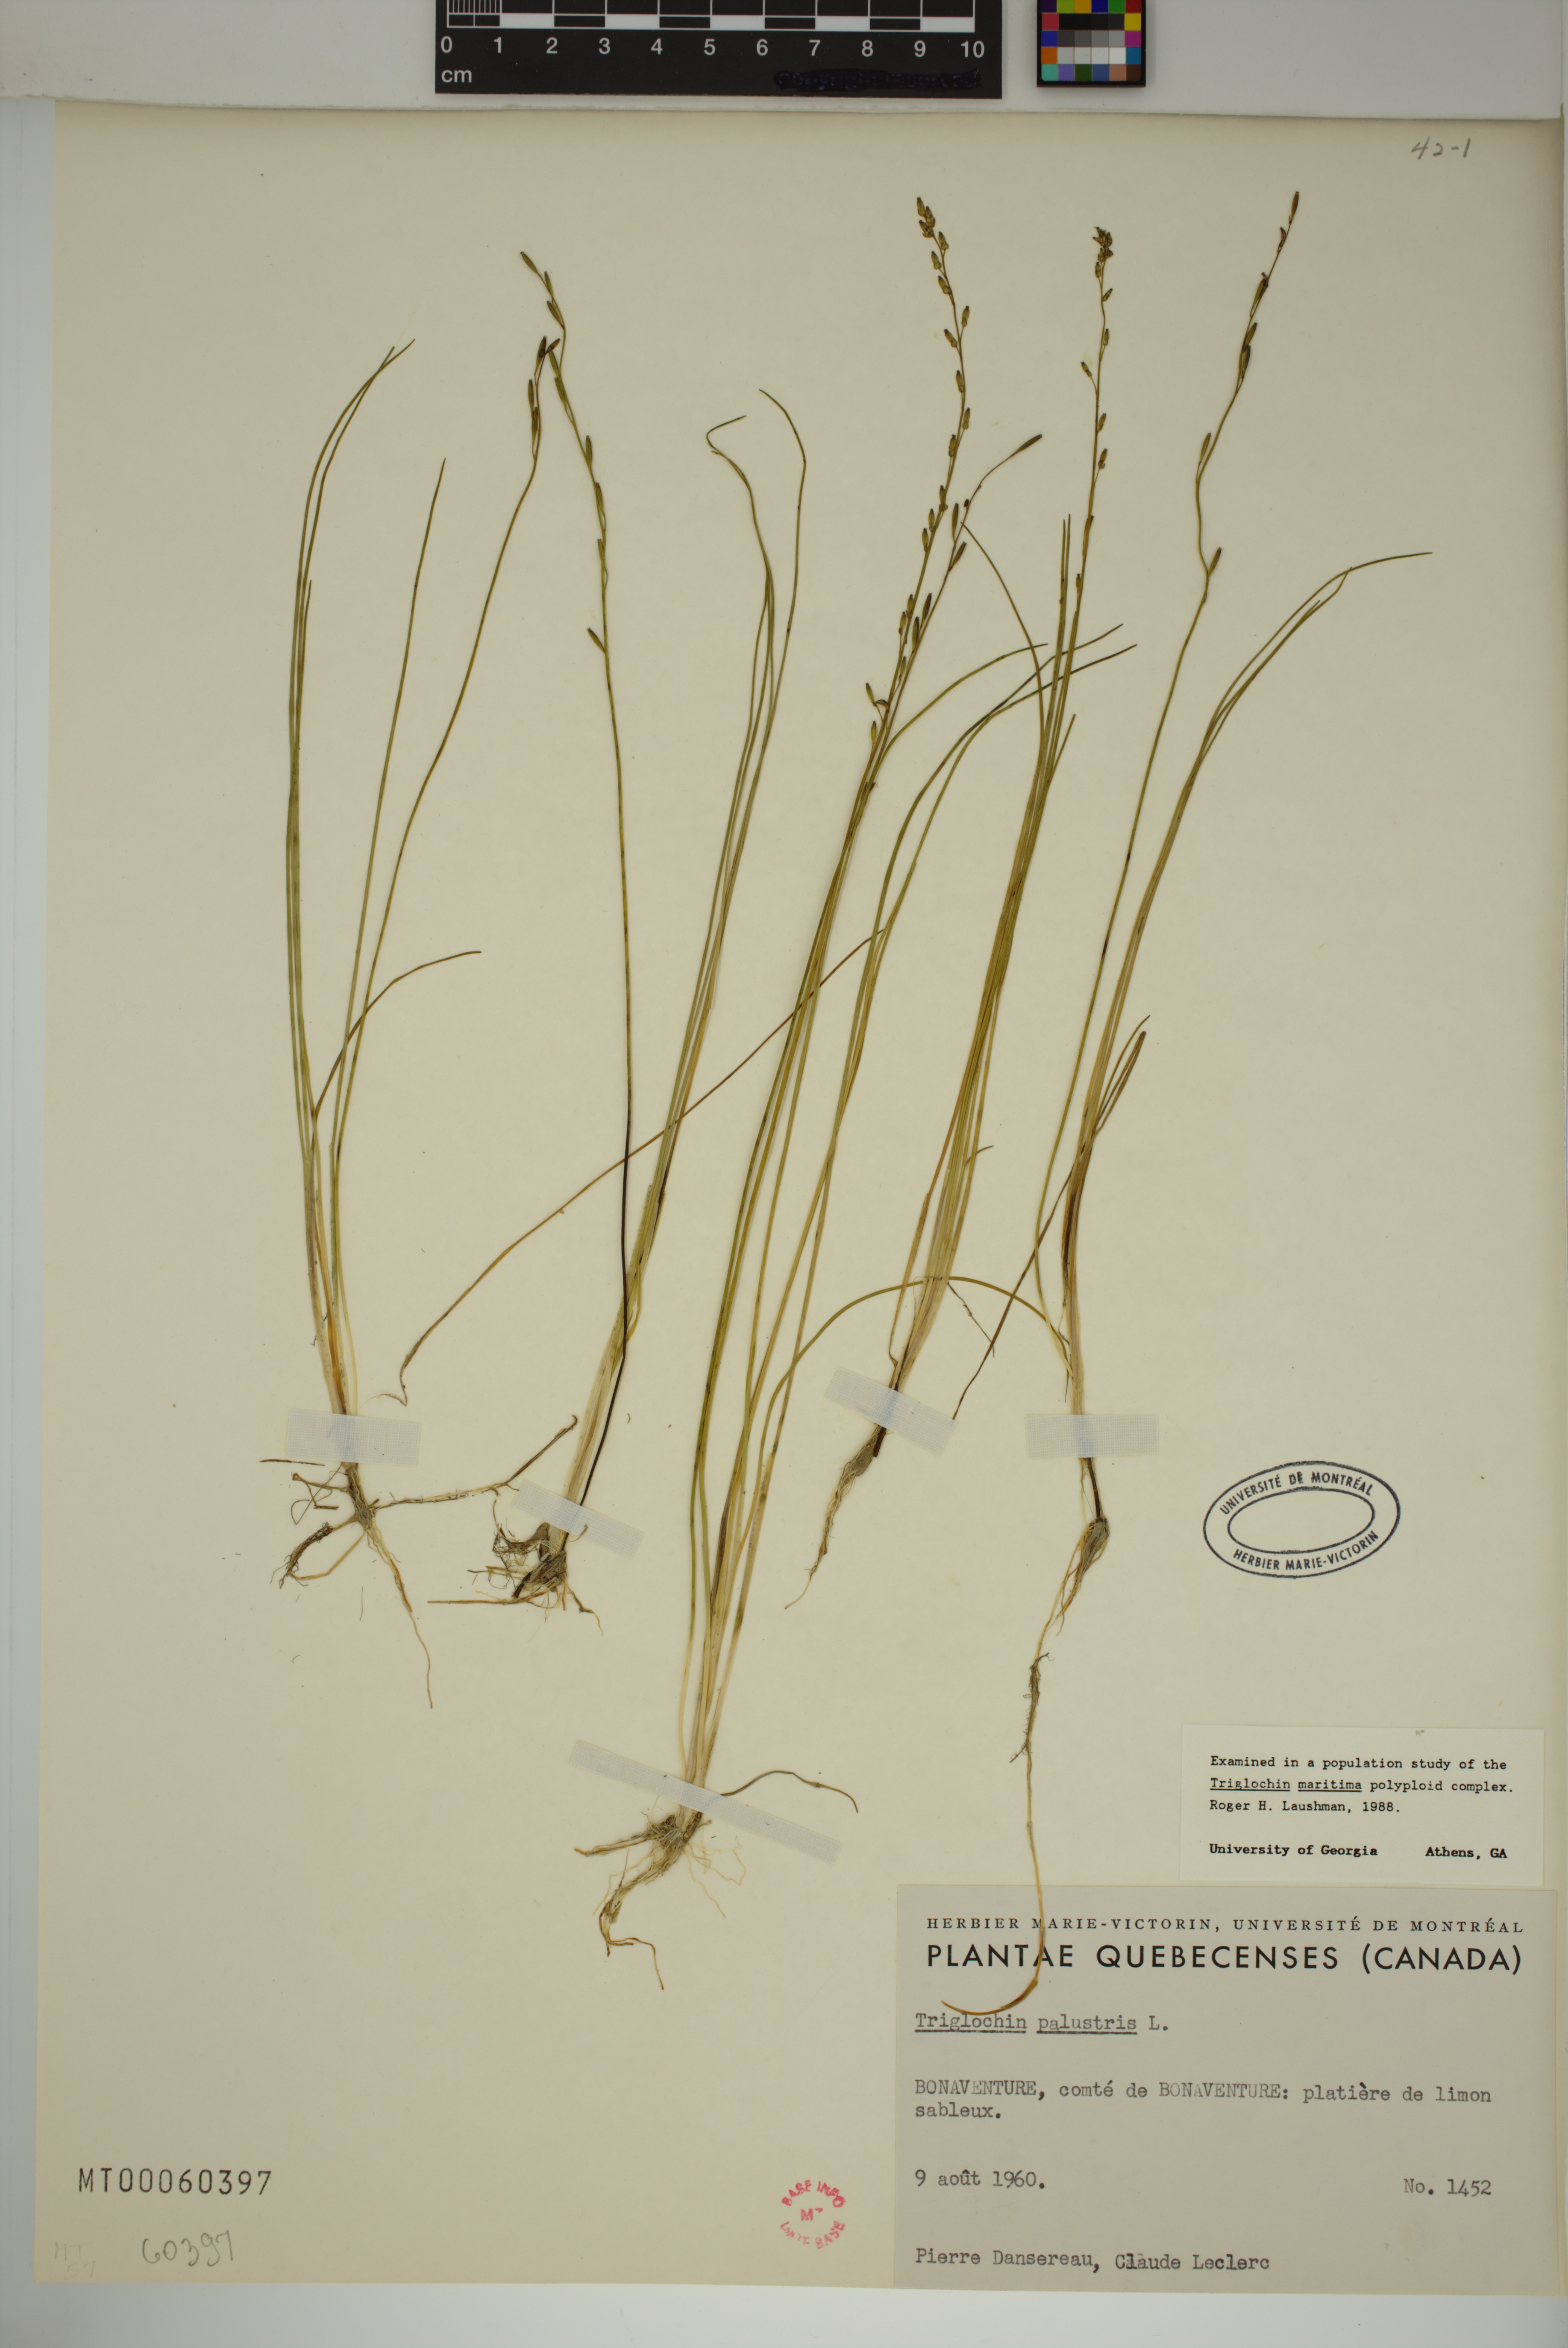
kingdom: Plantae
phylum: Tracheophyta
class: Liliopsida
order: Alismatales
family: Juncaginaceae
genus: Triglochin
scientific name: Triglochin palustris
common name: Marsh arrowgrass
